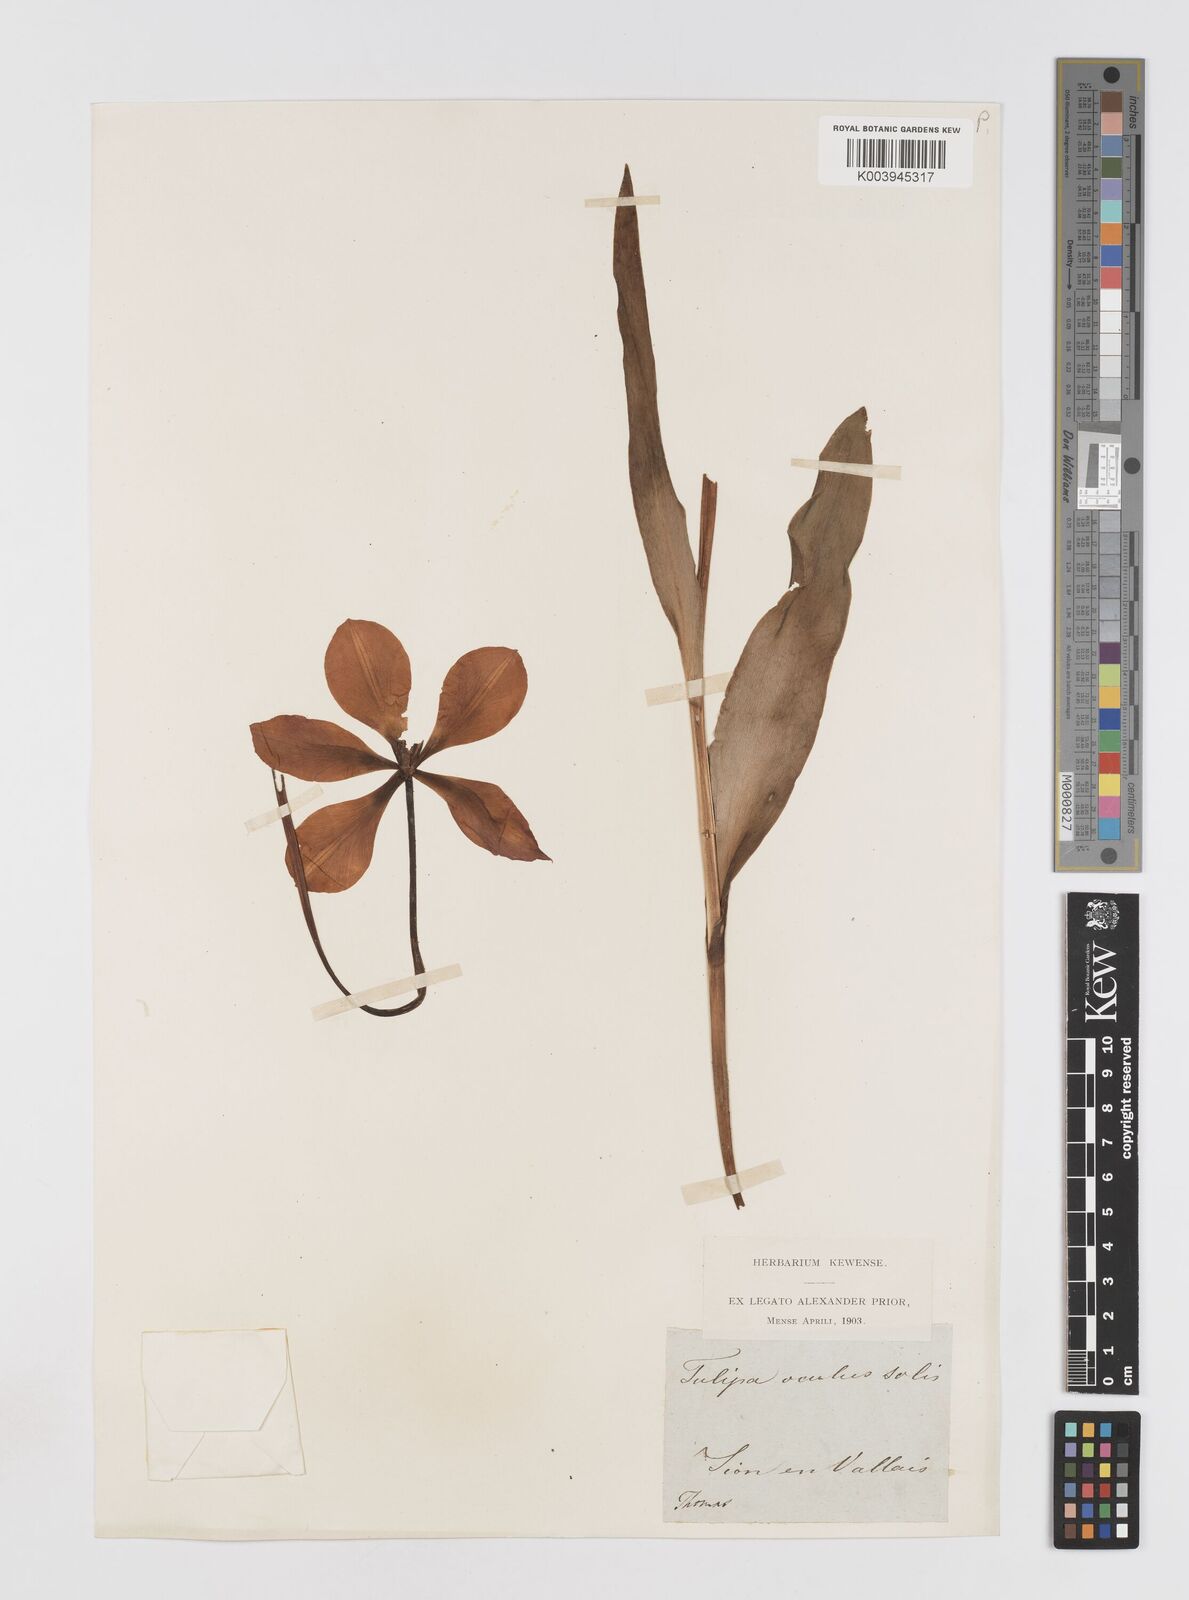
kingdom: Plantae
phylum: Tracheophyta
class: Liliopsida
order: Liliales
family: Liliaceae
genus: Tulipa
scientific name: Tulipa agenensis
